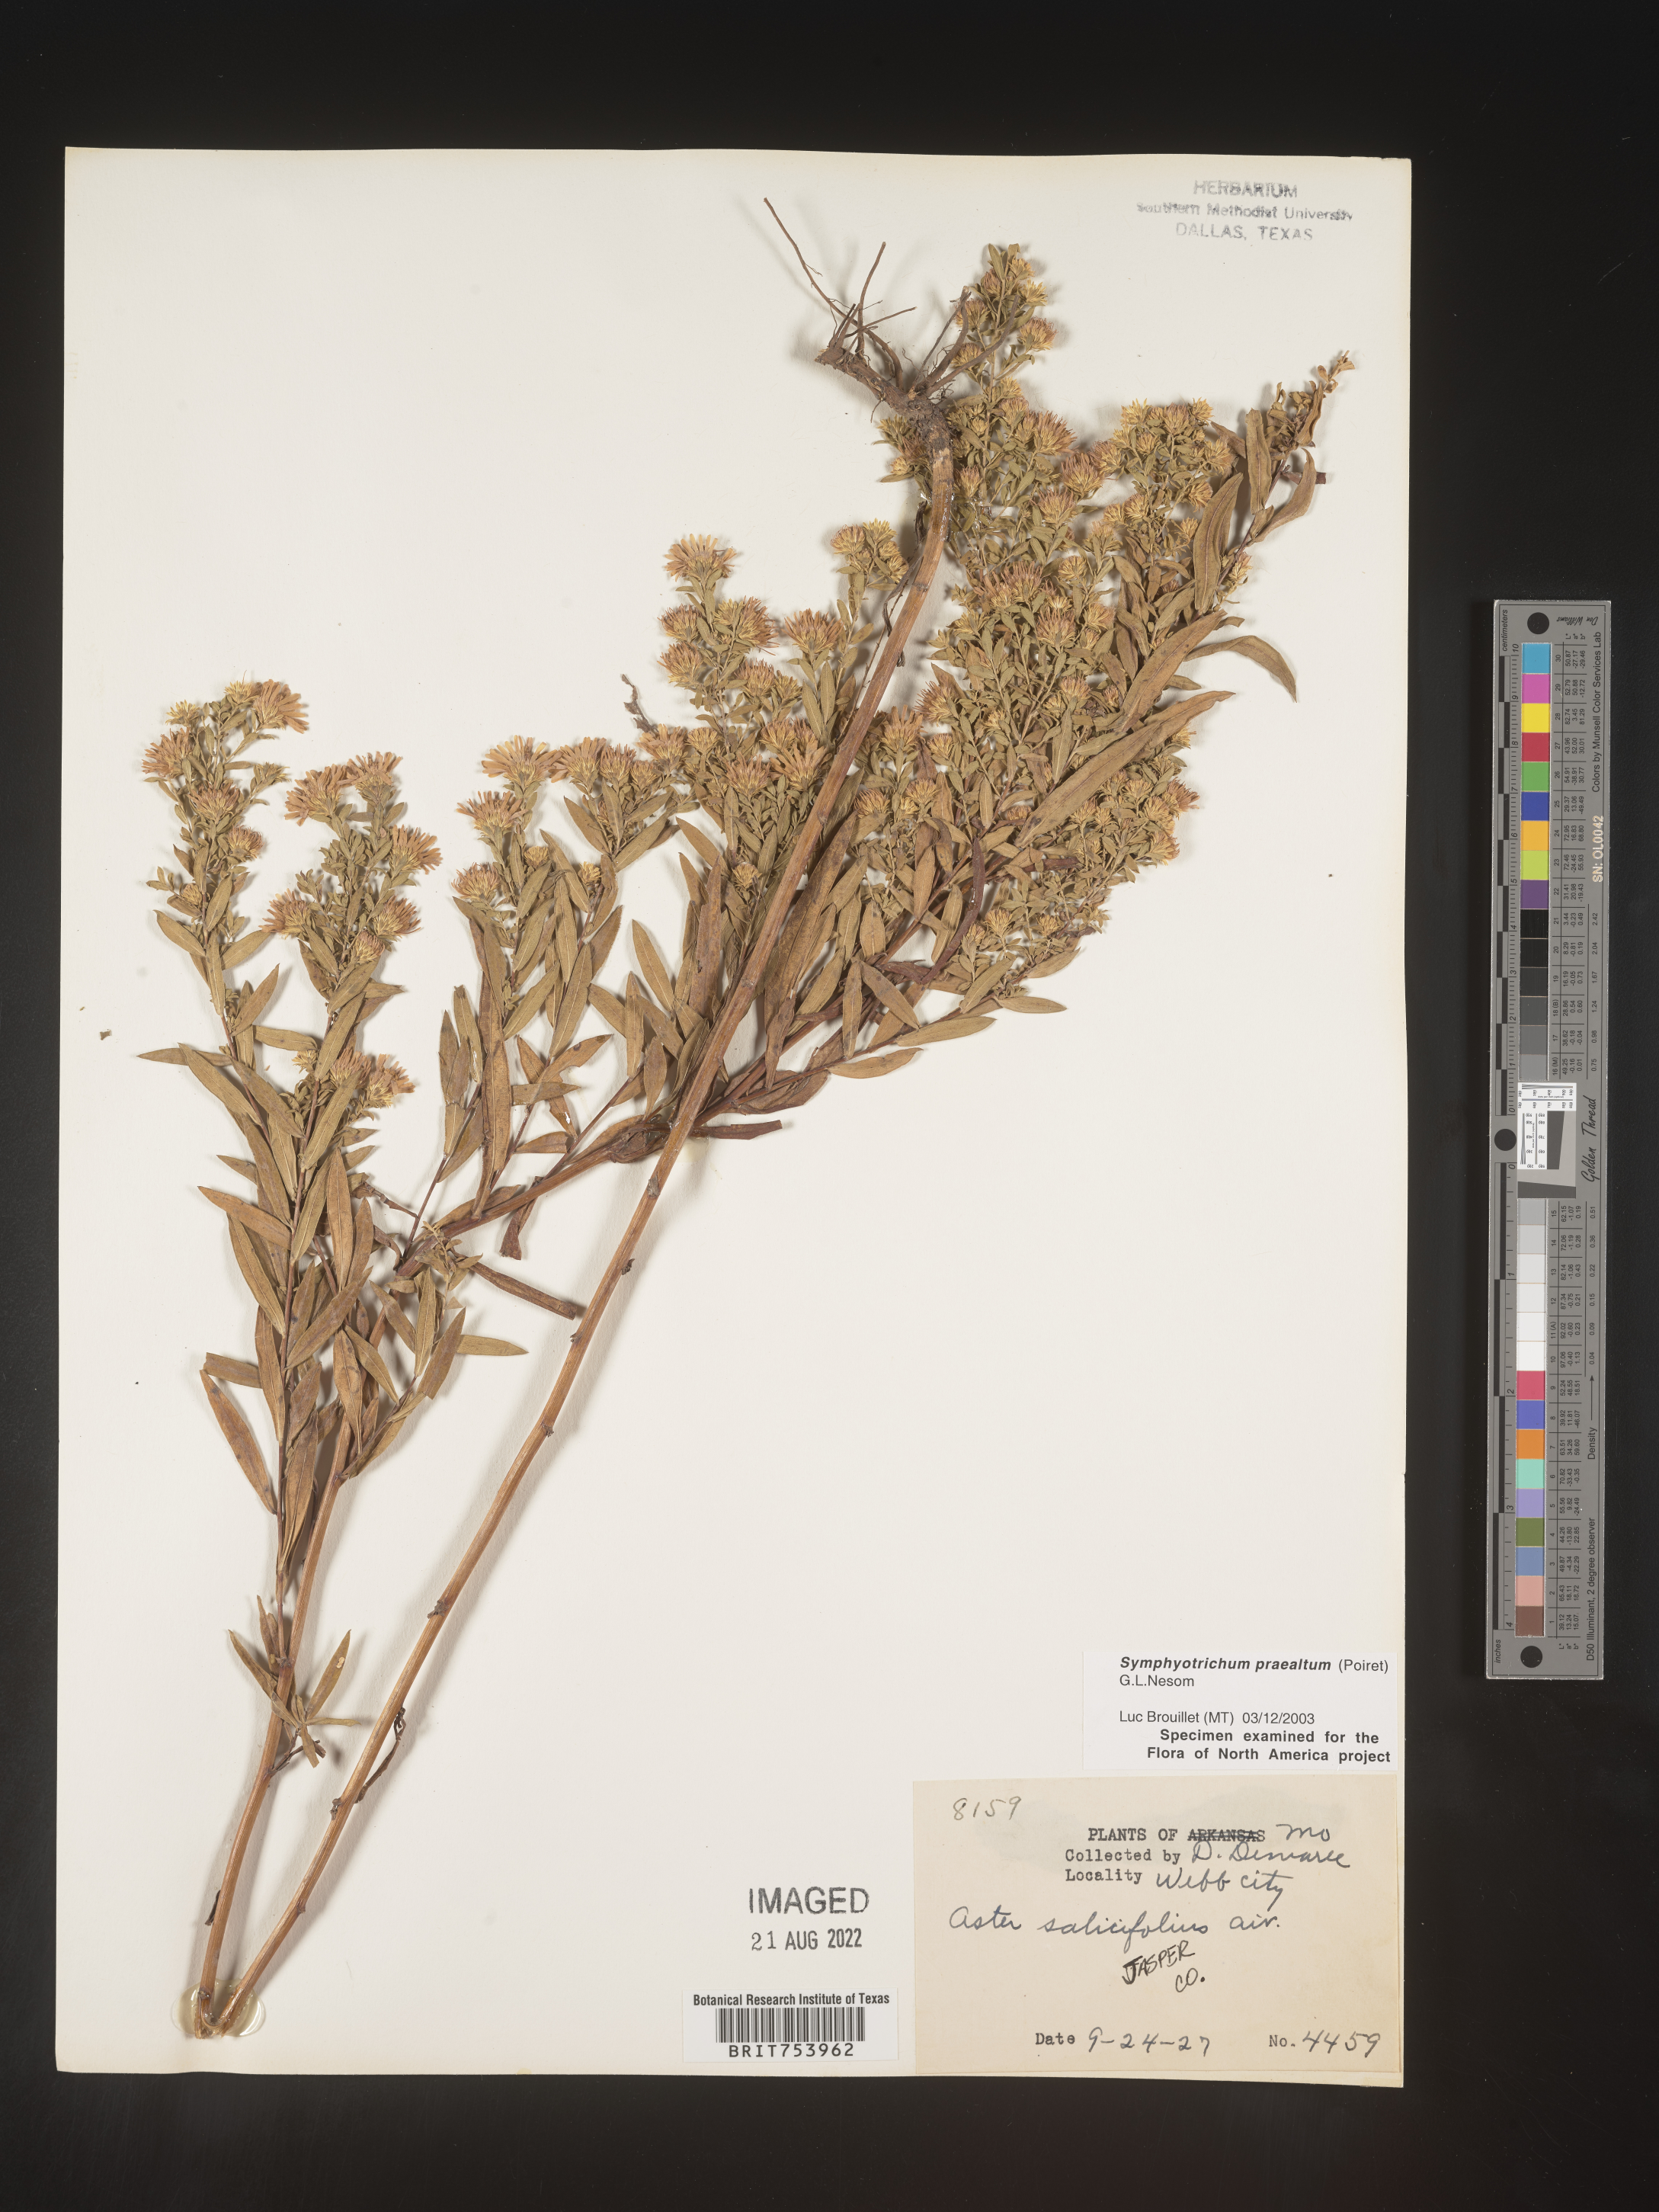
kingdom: Plantae
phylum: Tracheophyta
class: Magnoliopsida
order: Asterales
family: Asteraceae
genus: Symphyotrichum
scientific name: Symphyotrichum praealtum
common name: Willow aster
